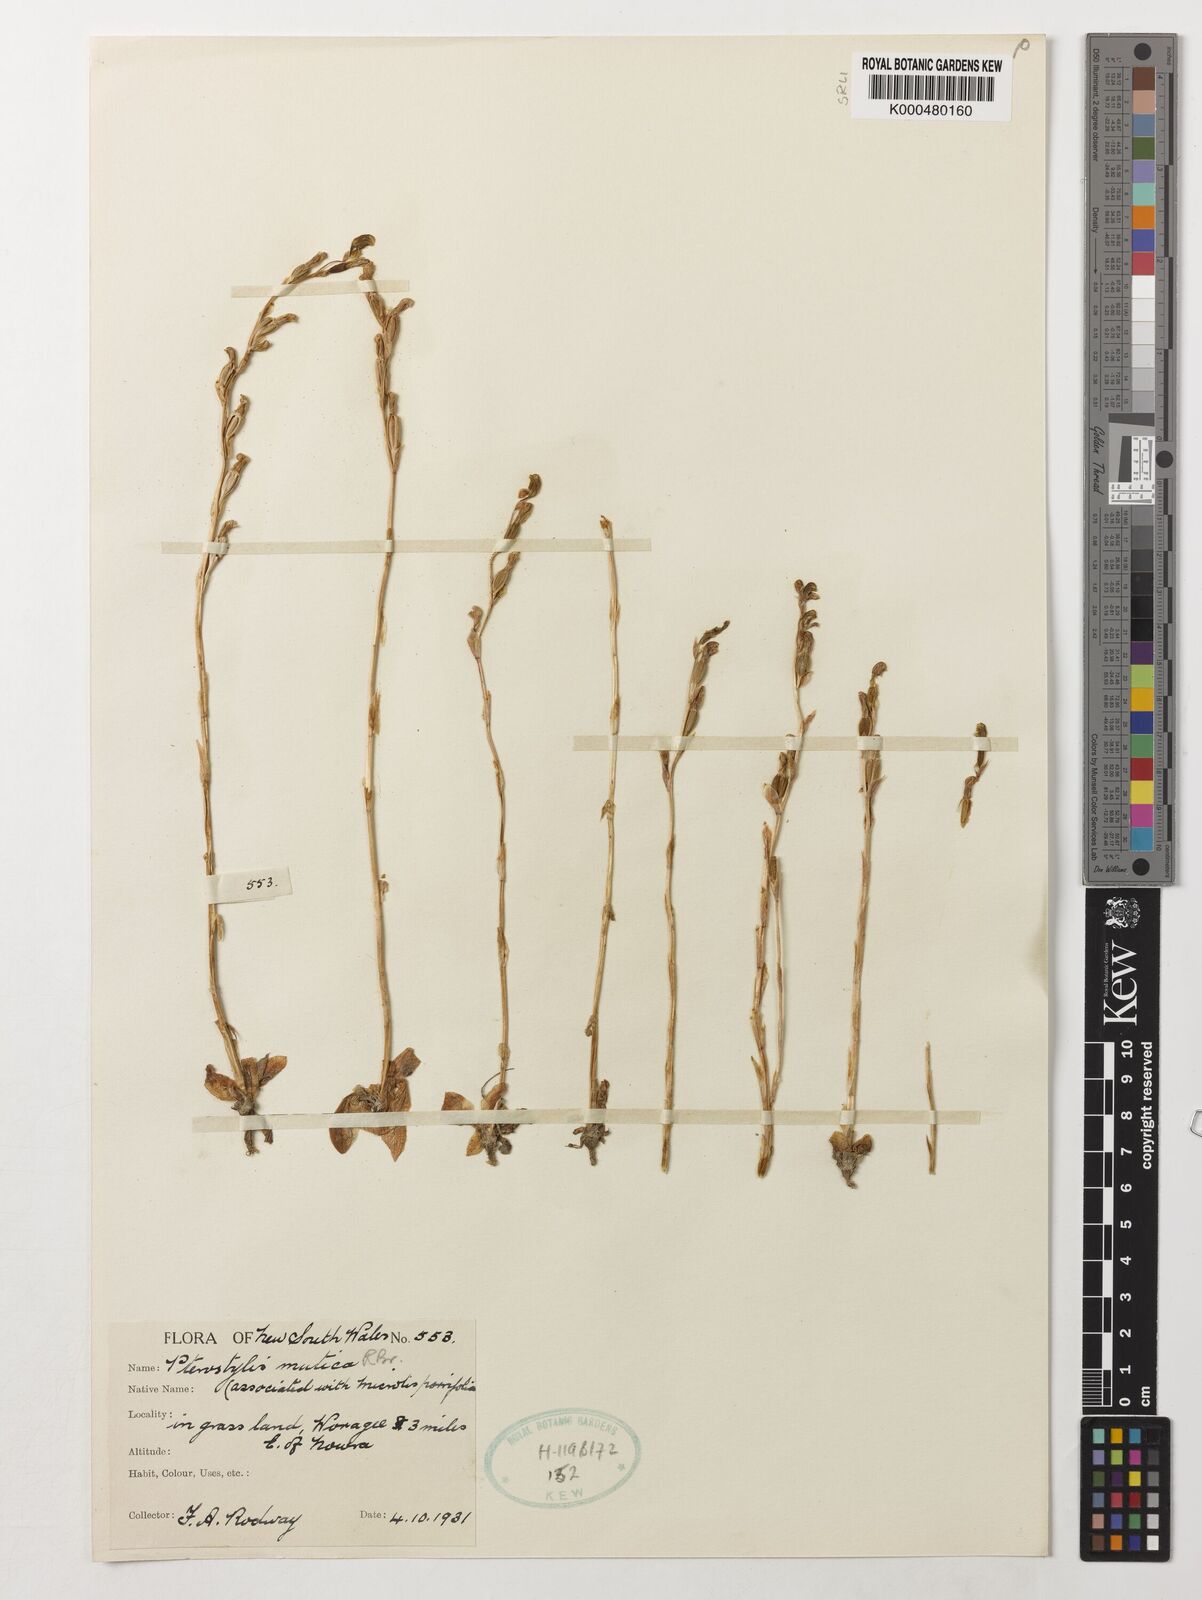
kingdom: Plantae
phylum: Tracheophyta
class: Liliopsida
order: Asparagales
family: Orchidaceae
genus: Pterostylis
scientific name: Pterostylis mutica
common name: Midget greenhood
